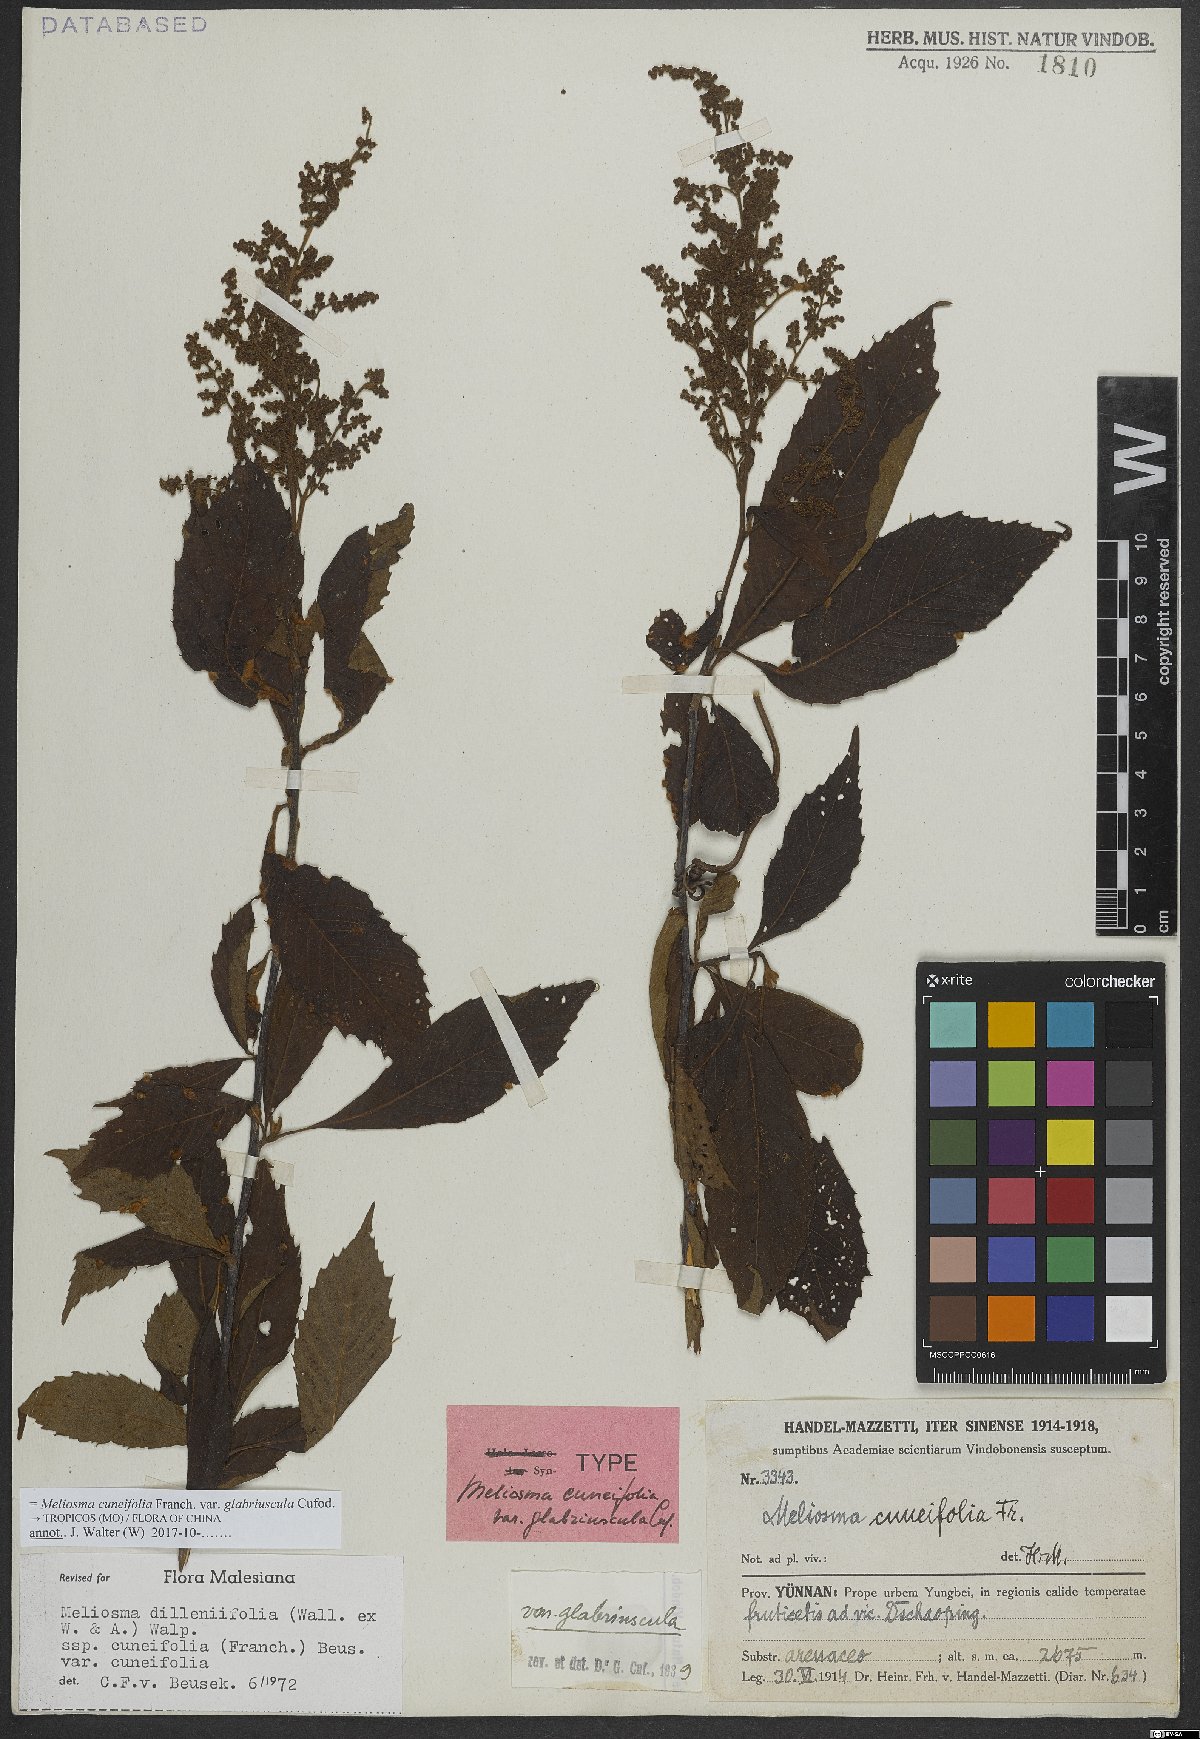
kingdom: Plantae
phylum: Tracheophyta
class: Magnoliopsida
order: Proteales
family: Sabiaceae
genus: Meliosma
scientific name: Meliosma cuneifolia
